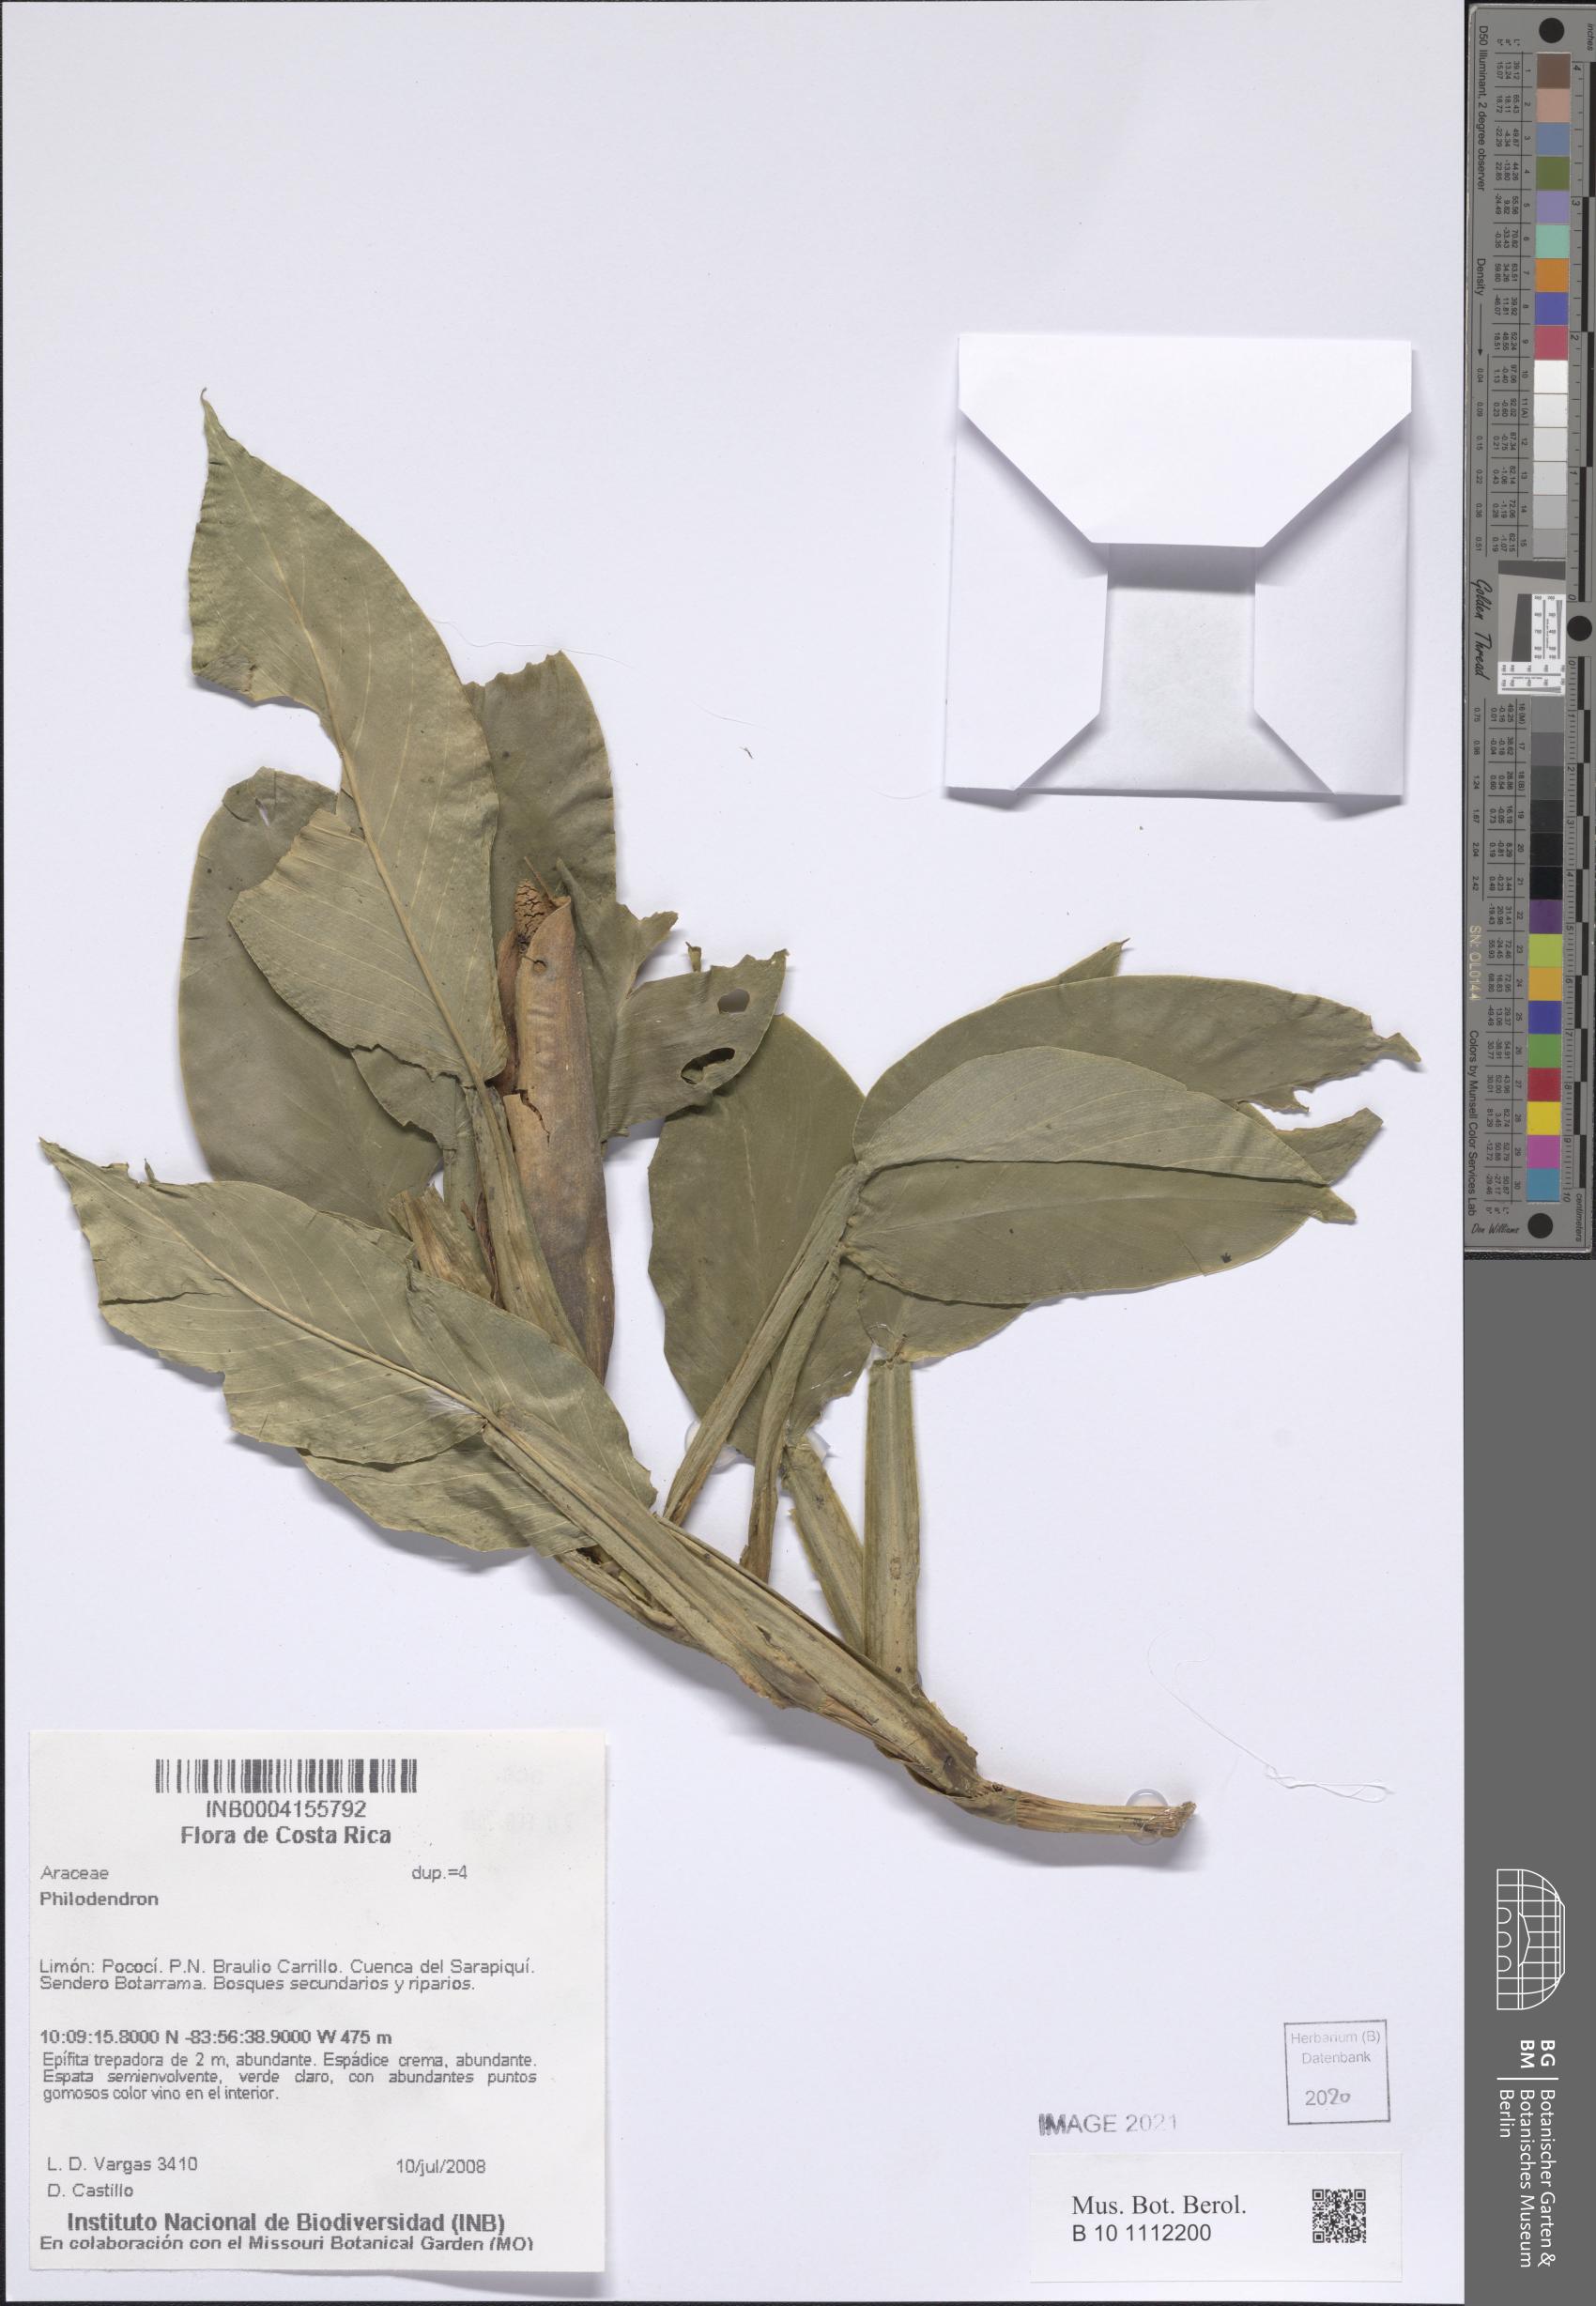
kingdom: Plantae
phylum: Tracheophyta
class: Liliopsida
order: Alismatales
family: Araceae
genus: Philodendron
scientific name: Philodendron
